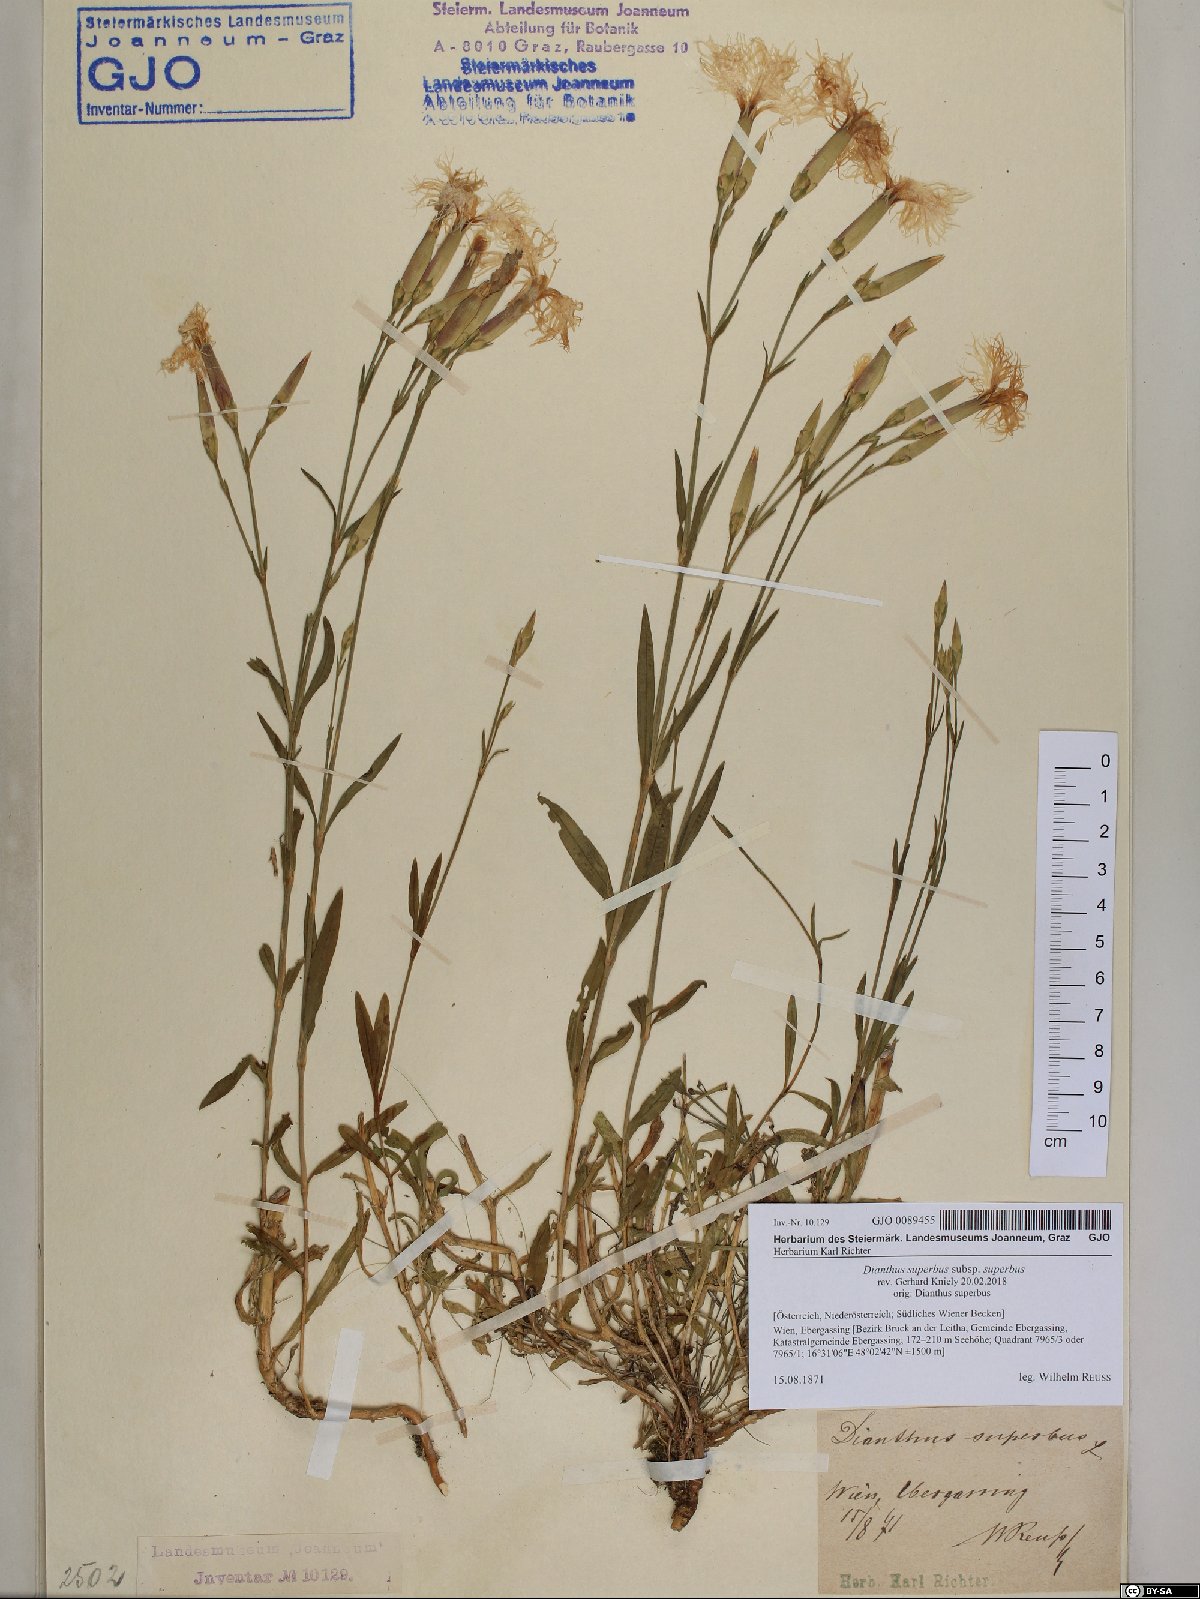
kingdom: Plantae
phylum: Tracheophyta
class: Magnoliopsida
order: Caryophyllales
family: Caryophyllaceae
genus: Dianthus
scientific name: Dianthus superbus
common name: Fringed pink
